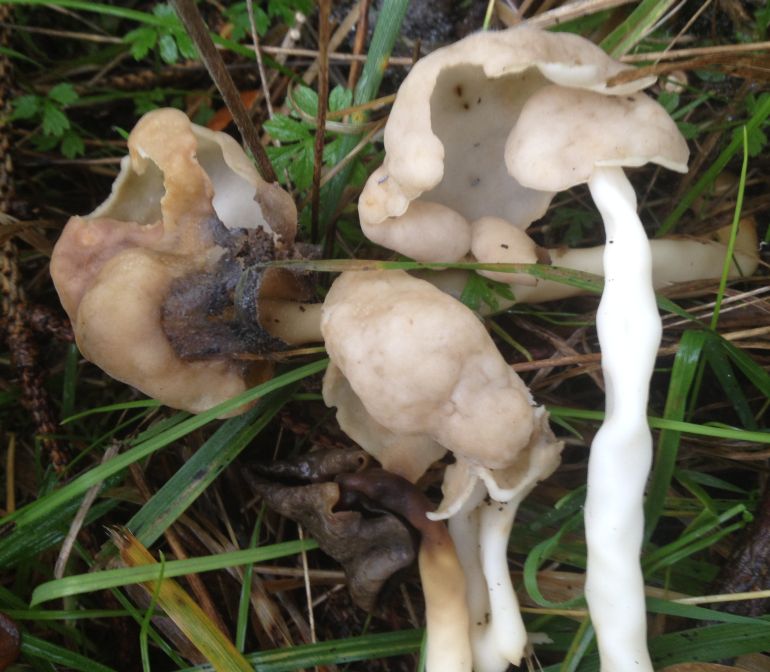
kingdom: Fungi
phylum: Ascomycota
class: Pezizomycetes
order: Pezizales
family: Helvellaceae
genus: Helvella
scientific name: Helvella
